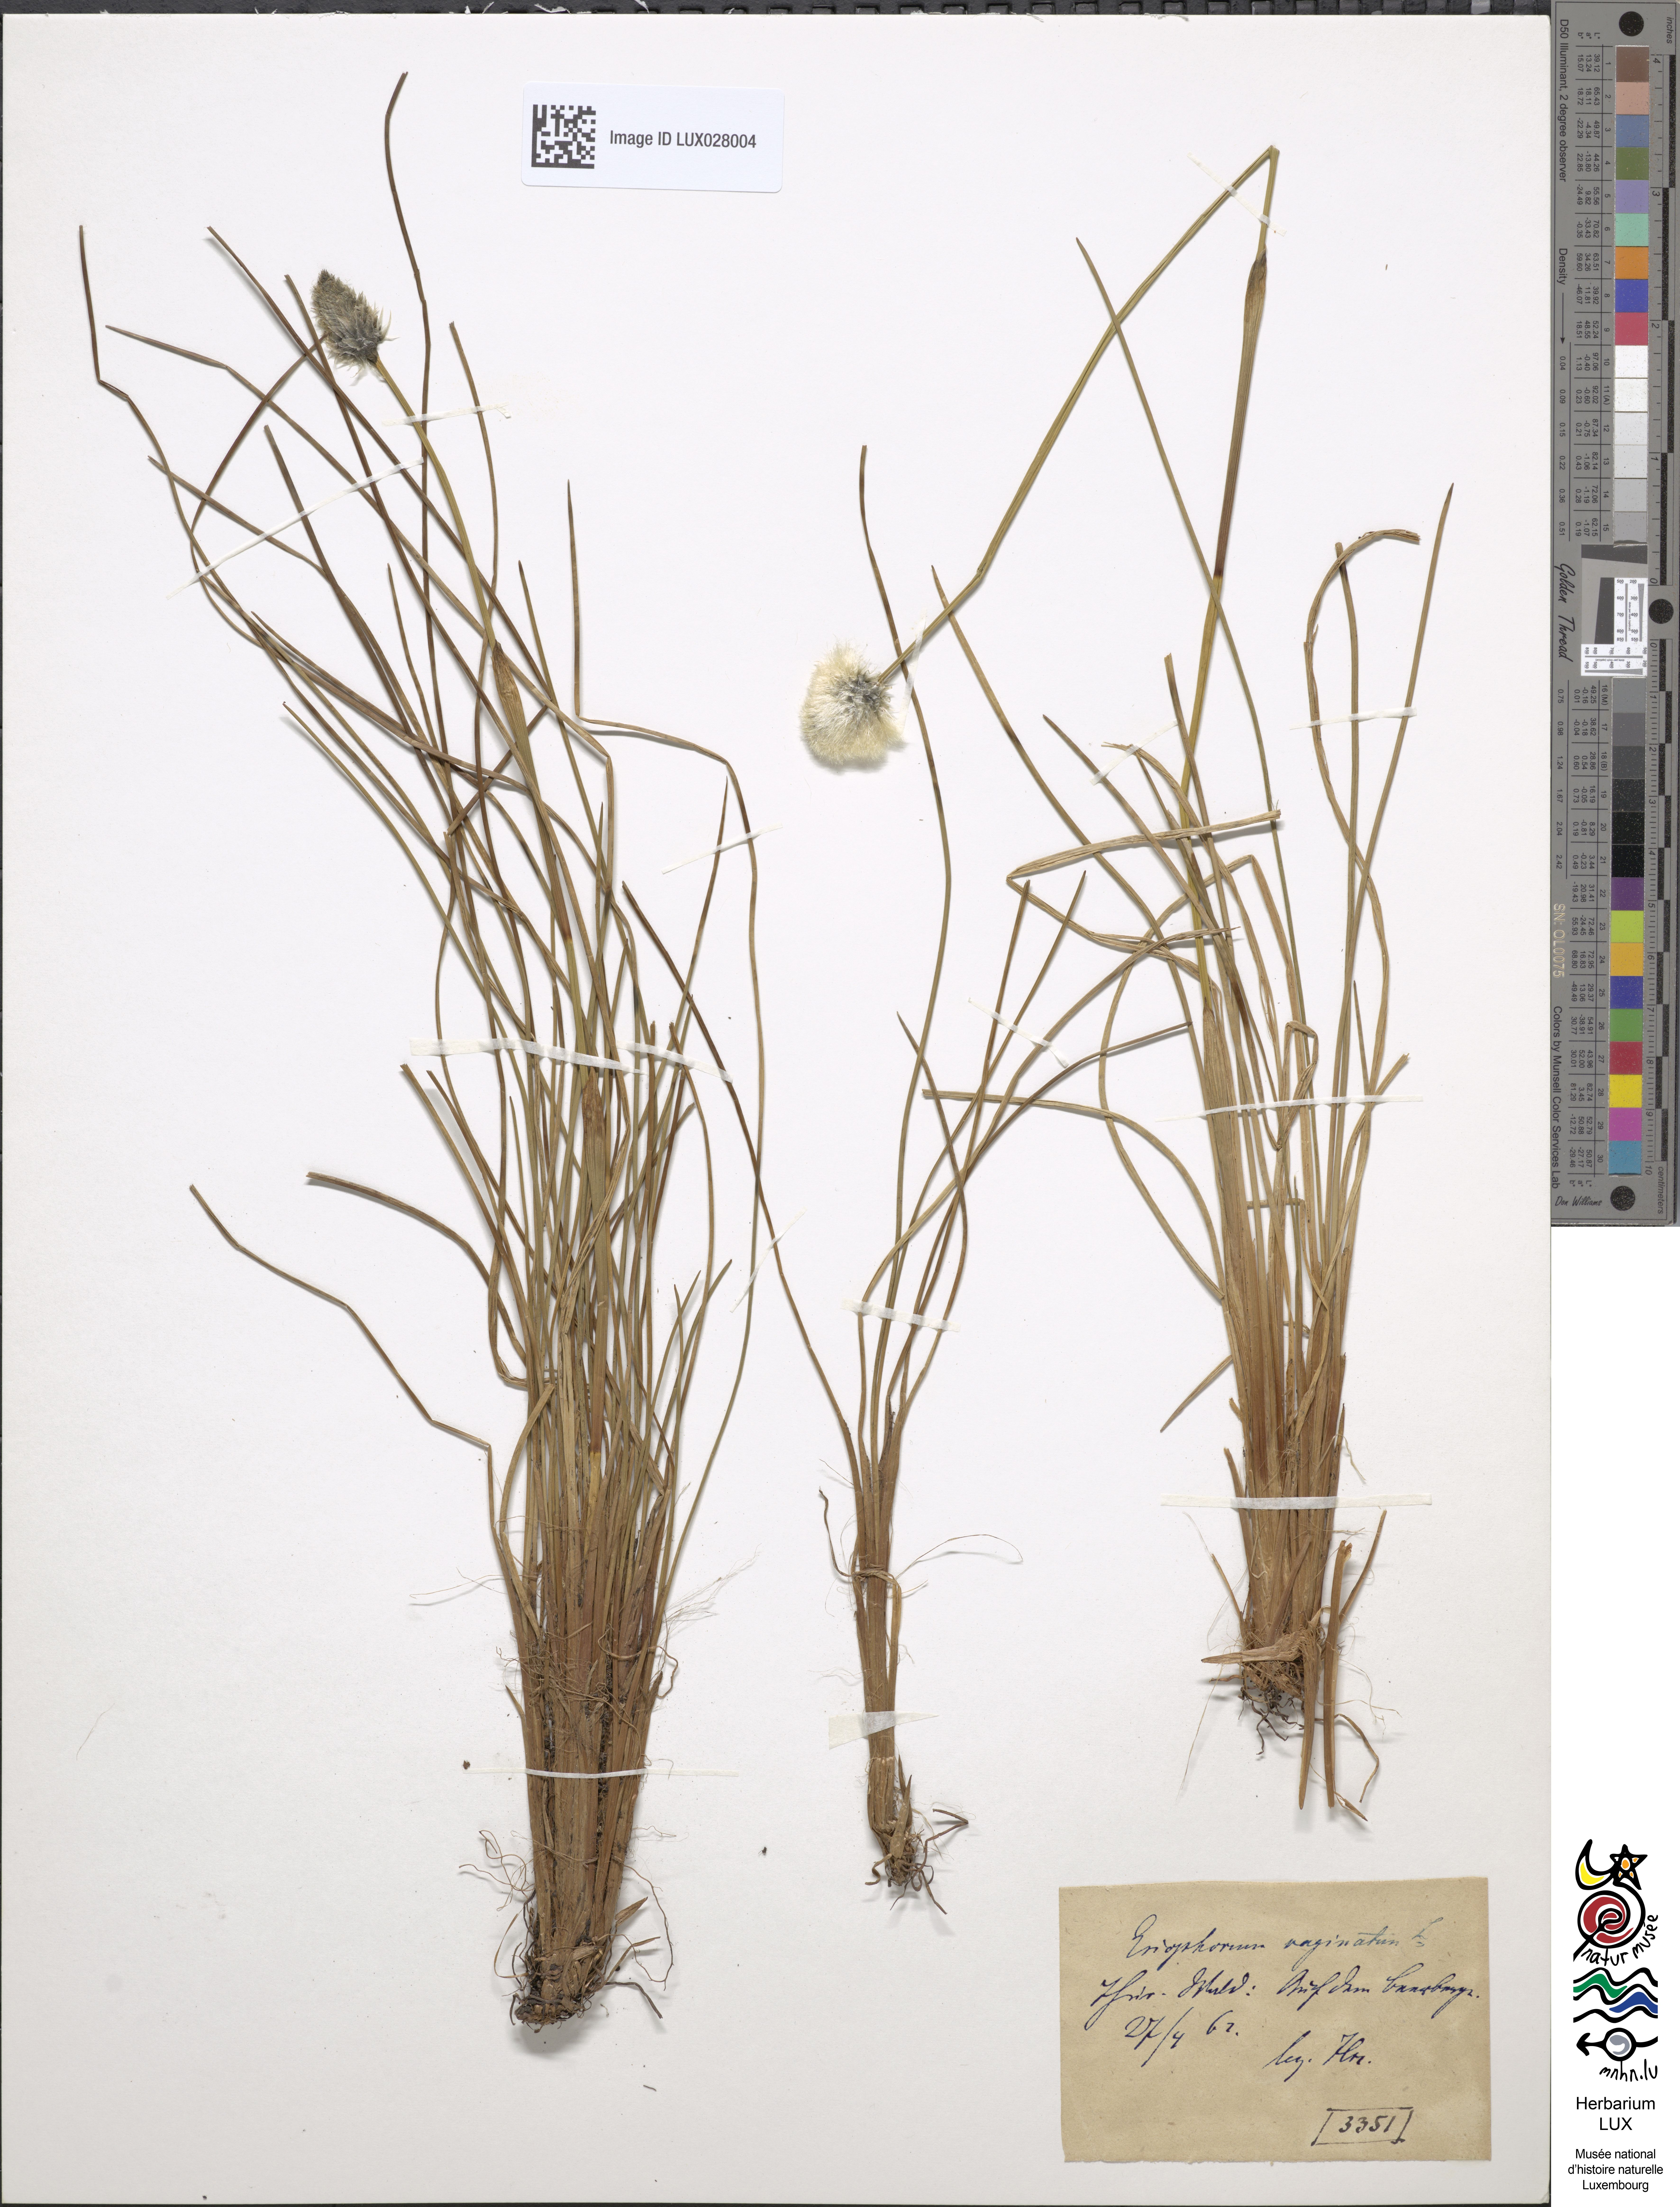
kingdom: Plantae
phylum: Tracheophyta
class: Liliopsida
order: Poales
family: Cyperaceae
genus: Eriophorum
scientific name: Eriophorum vaginatum
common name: Hare's-tail cottongrass
